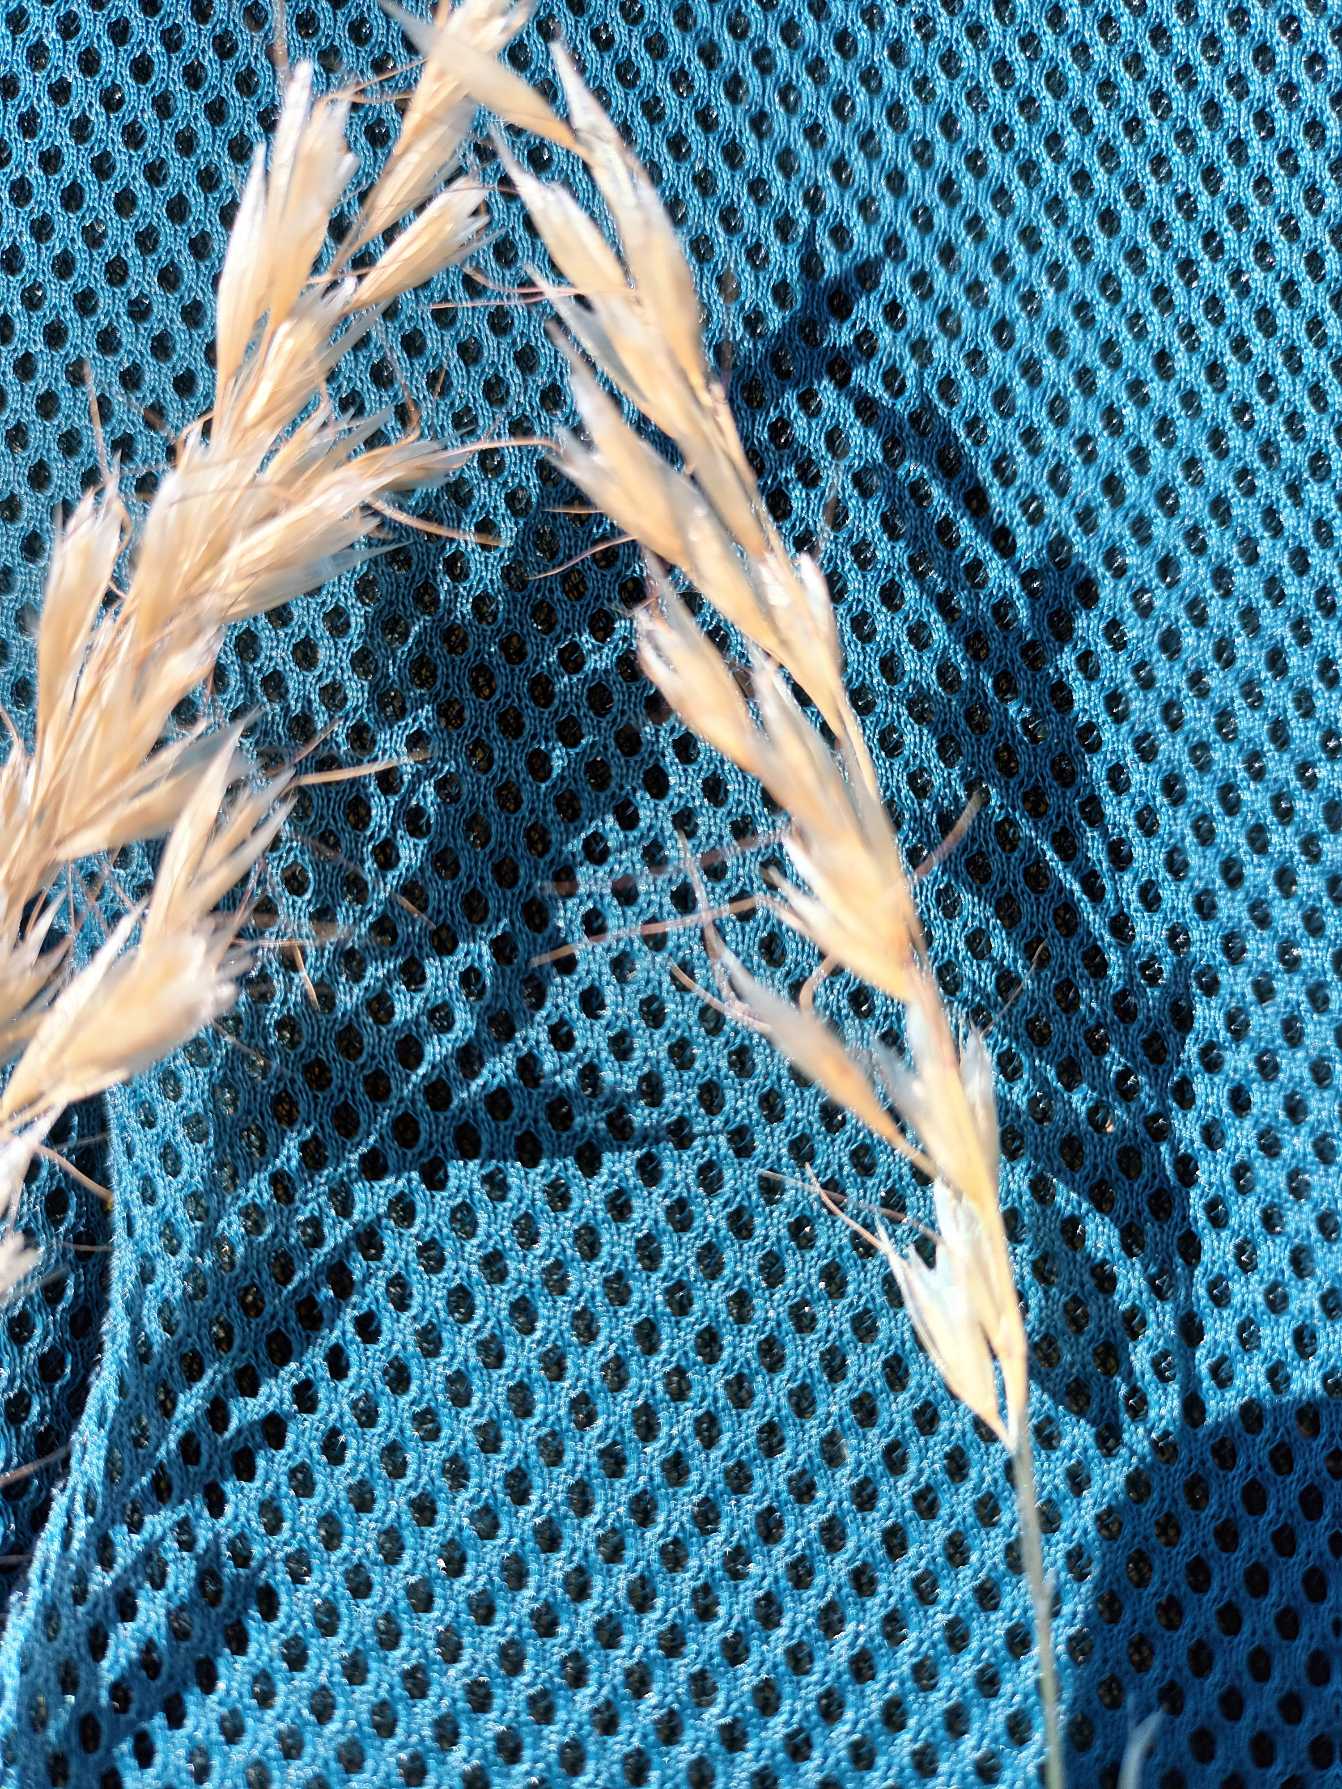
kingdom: Plantae
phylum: Tracheophyta
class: Liliopsida
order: Poales
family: Poaceae
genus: Avenula
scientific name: Avenula pubescens
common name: Dunet havre
